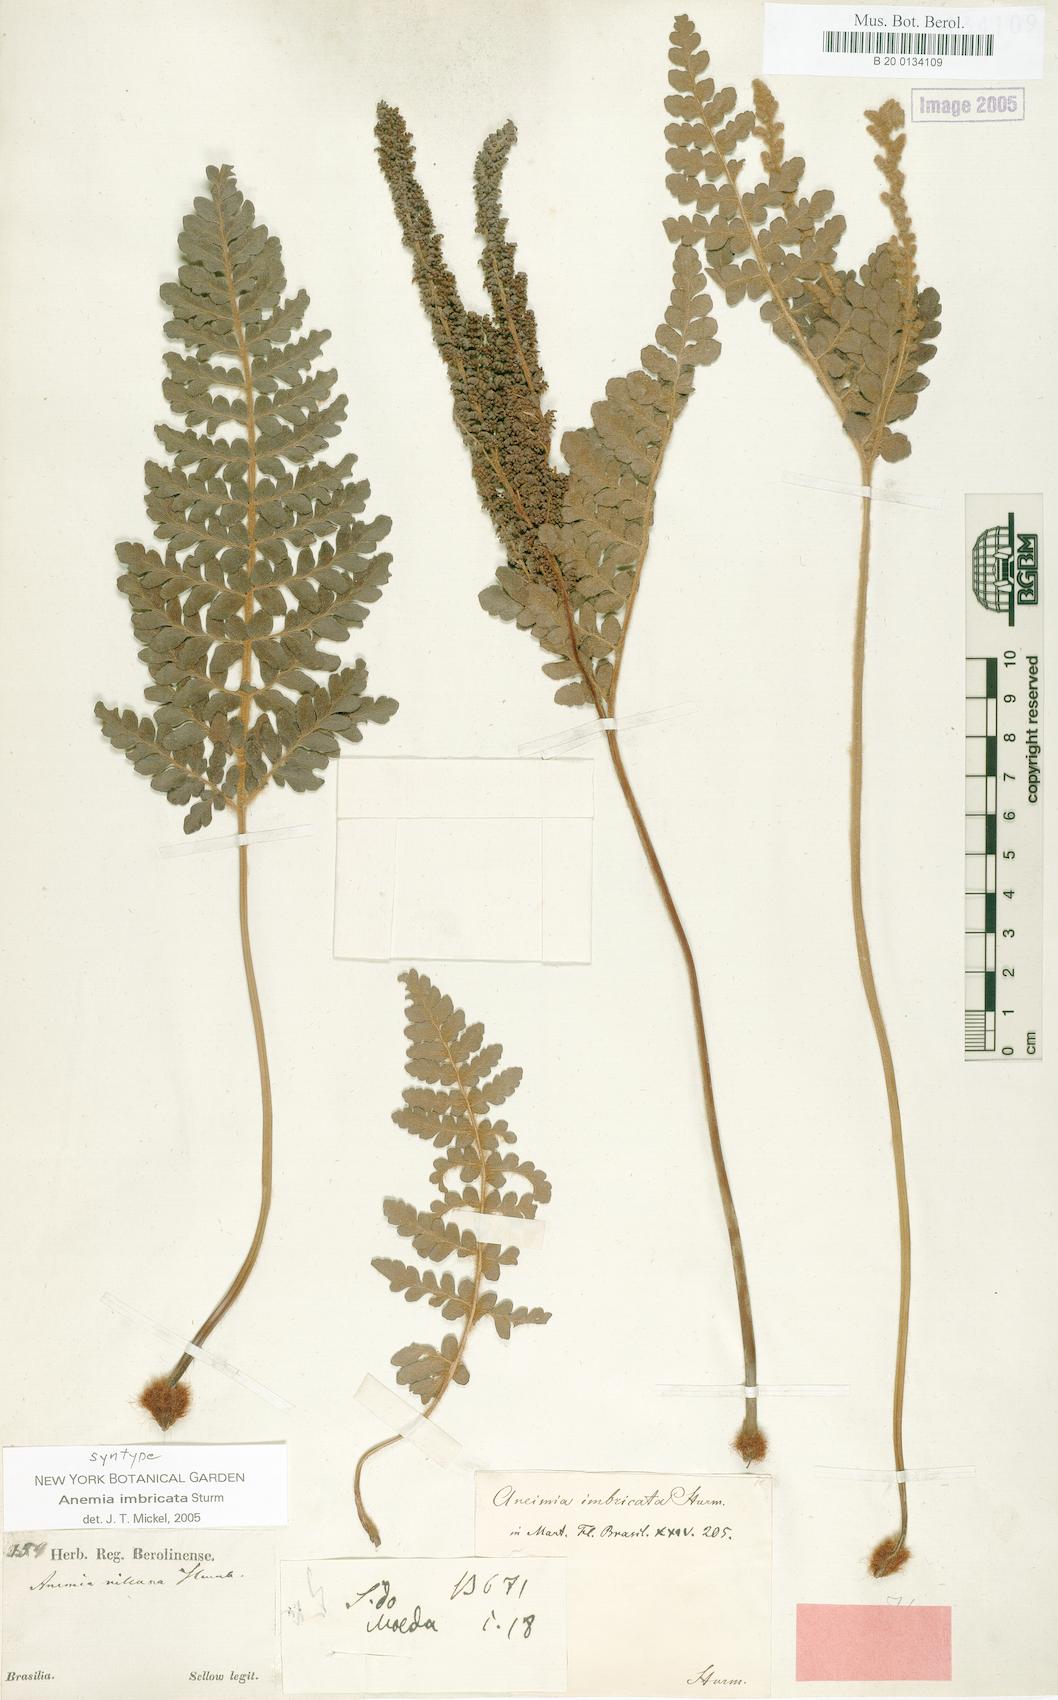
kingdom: Plantae
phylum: Tracheophyta
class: Polypodiopsida
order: Schizaeales
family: Anemiaceae
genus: Anemia
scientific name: Anemia imbricata
